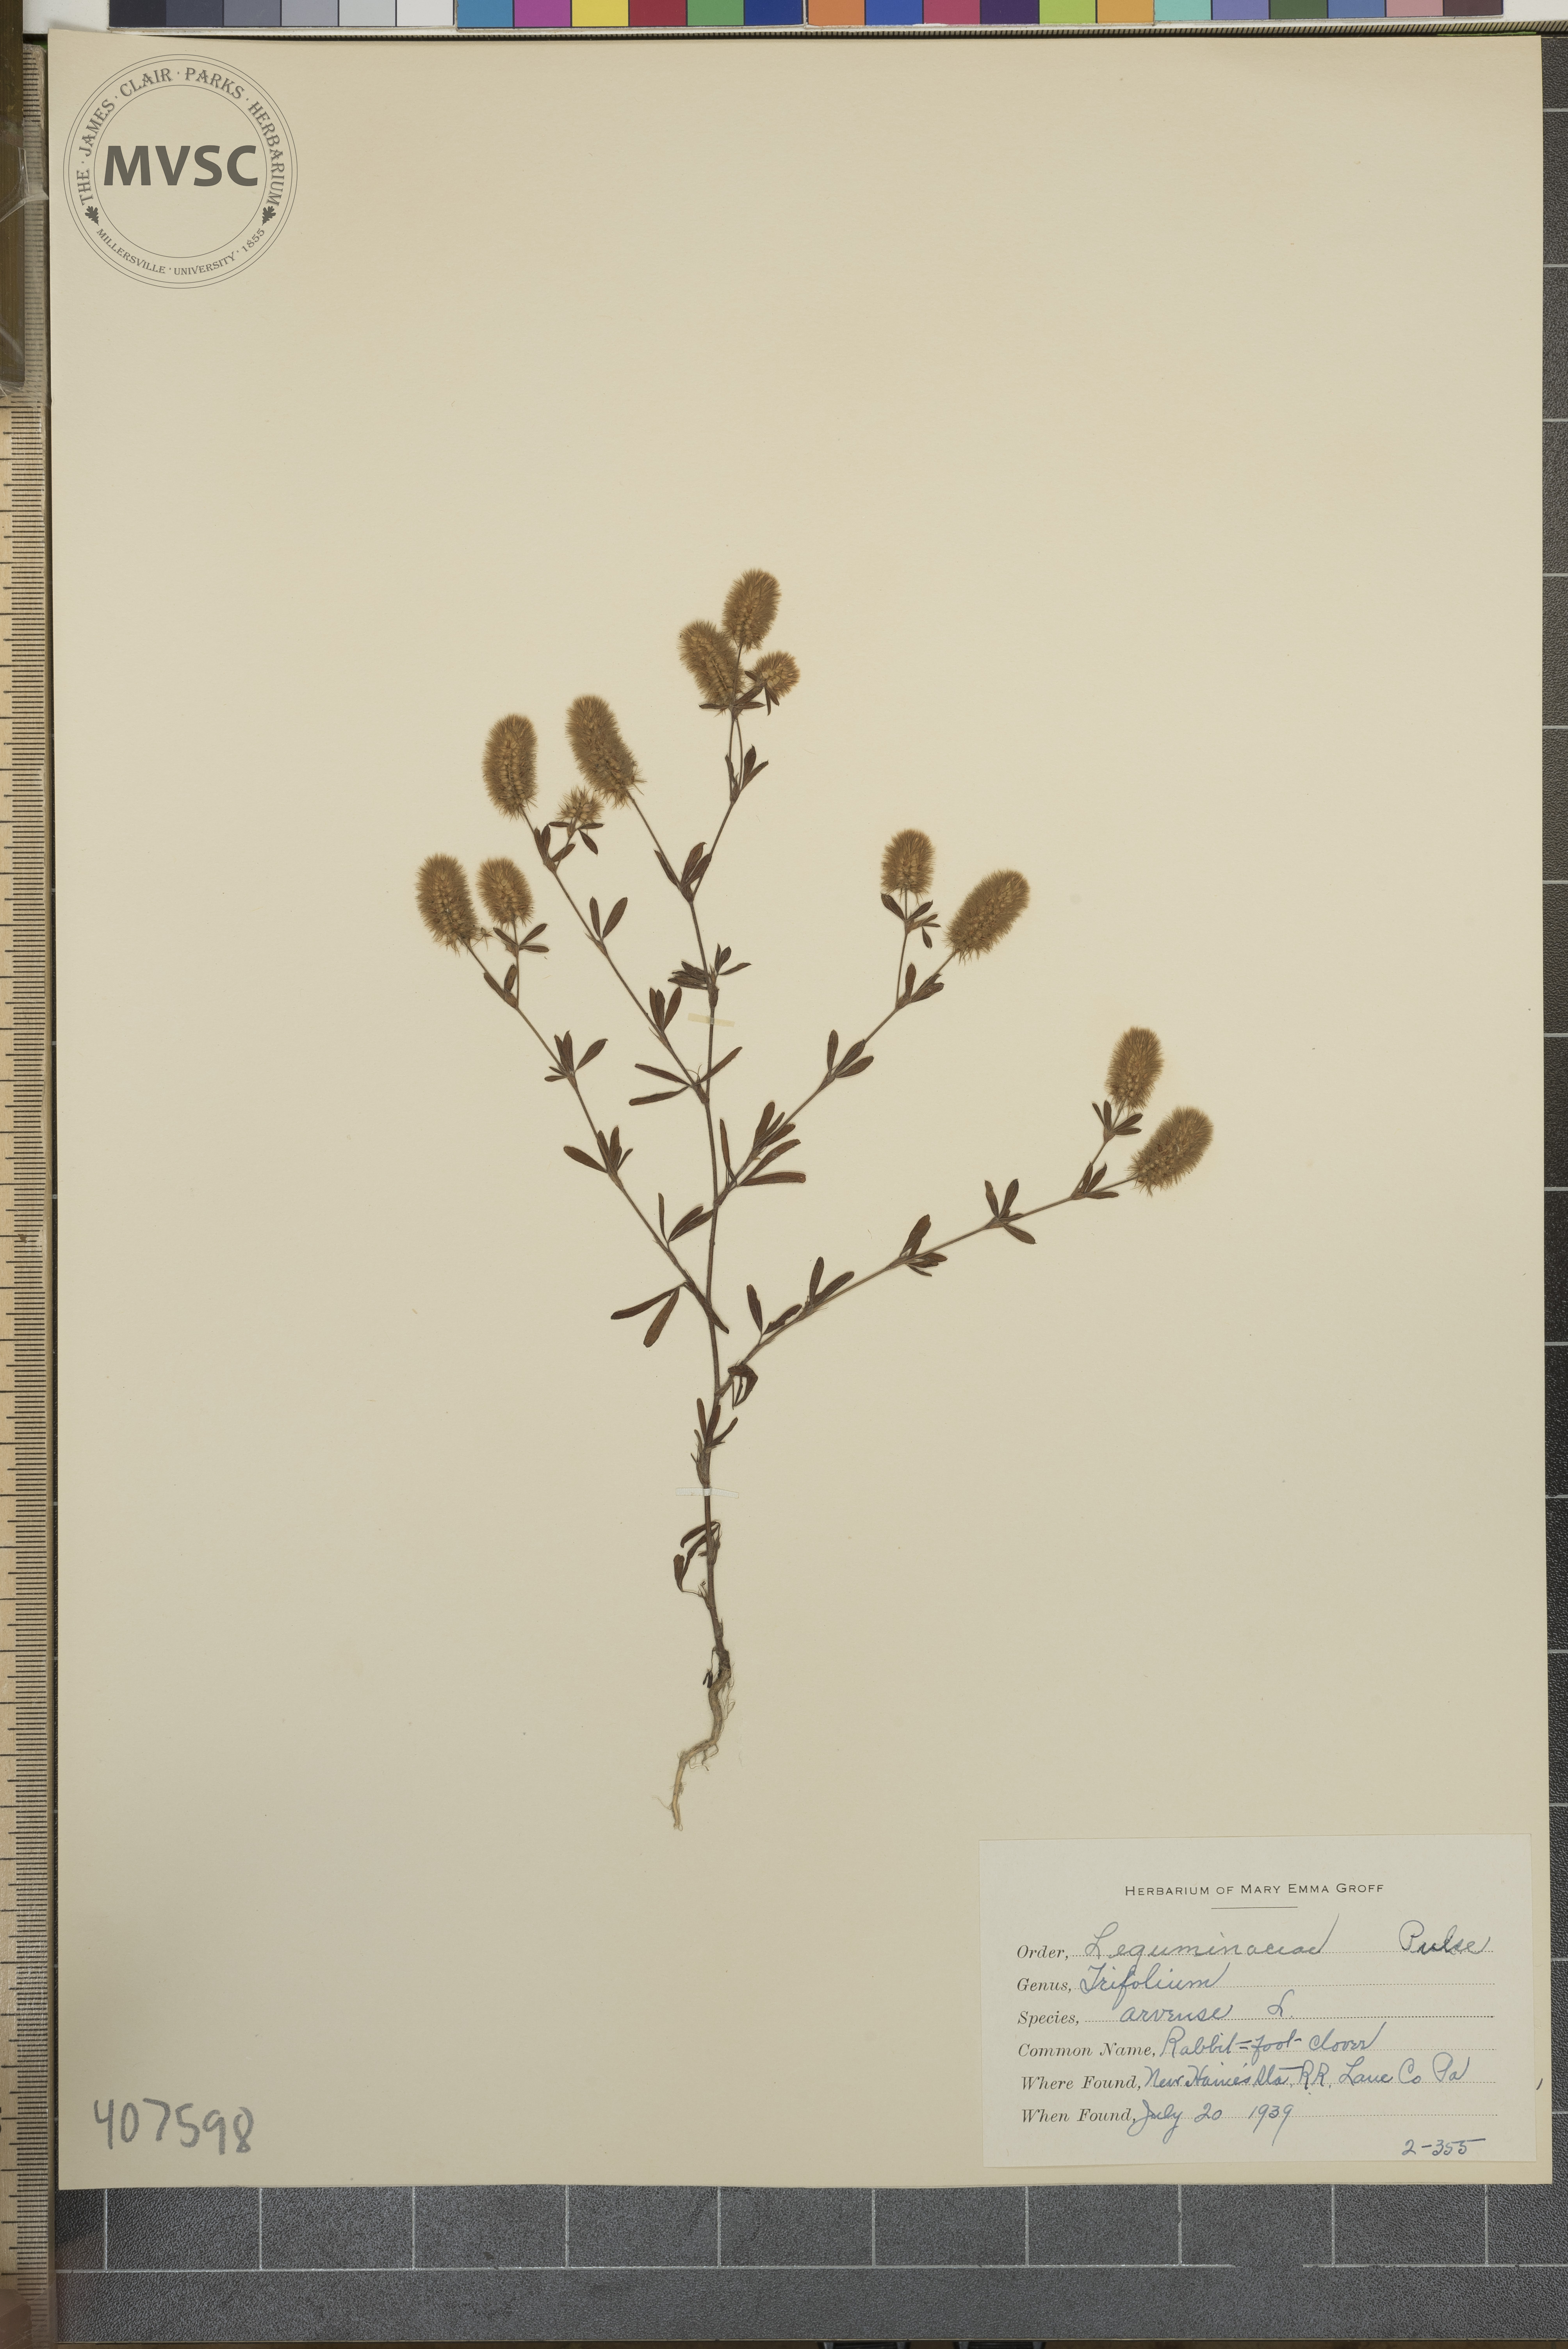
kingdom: Plantae
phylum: Tracheophyta
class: Magnoliopsida
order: Fabales
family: Fabaceae
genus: Trifolium
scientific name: Trifolium arvense
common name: Rabbit-foot clover
